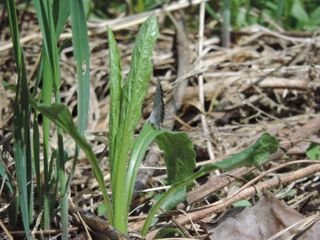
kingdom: Animalia
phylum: Arthropoda
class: Insecta
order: Lepidoptera
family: Lycaenidae
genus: Celastrina
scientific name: Celastrina lucia
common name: Northern Spring Azure
